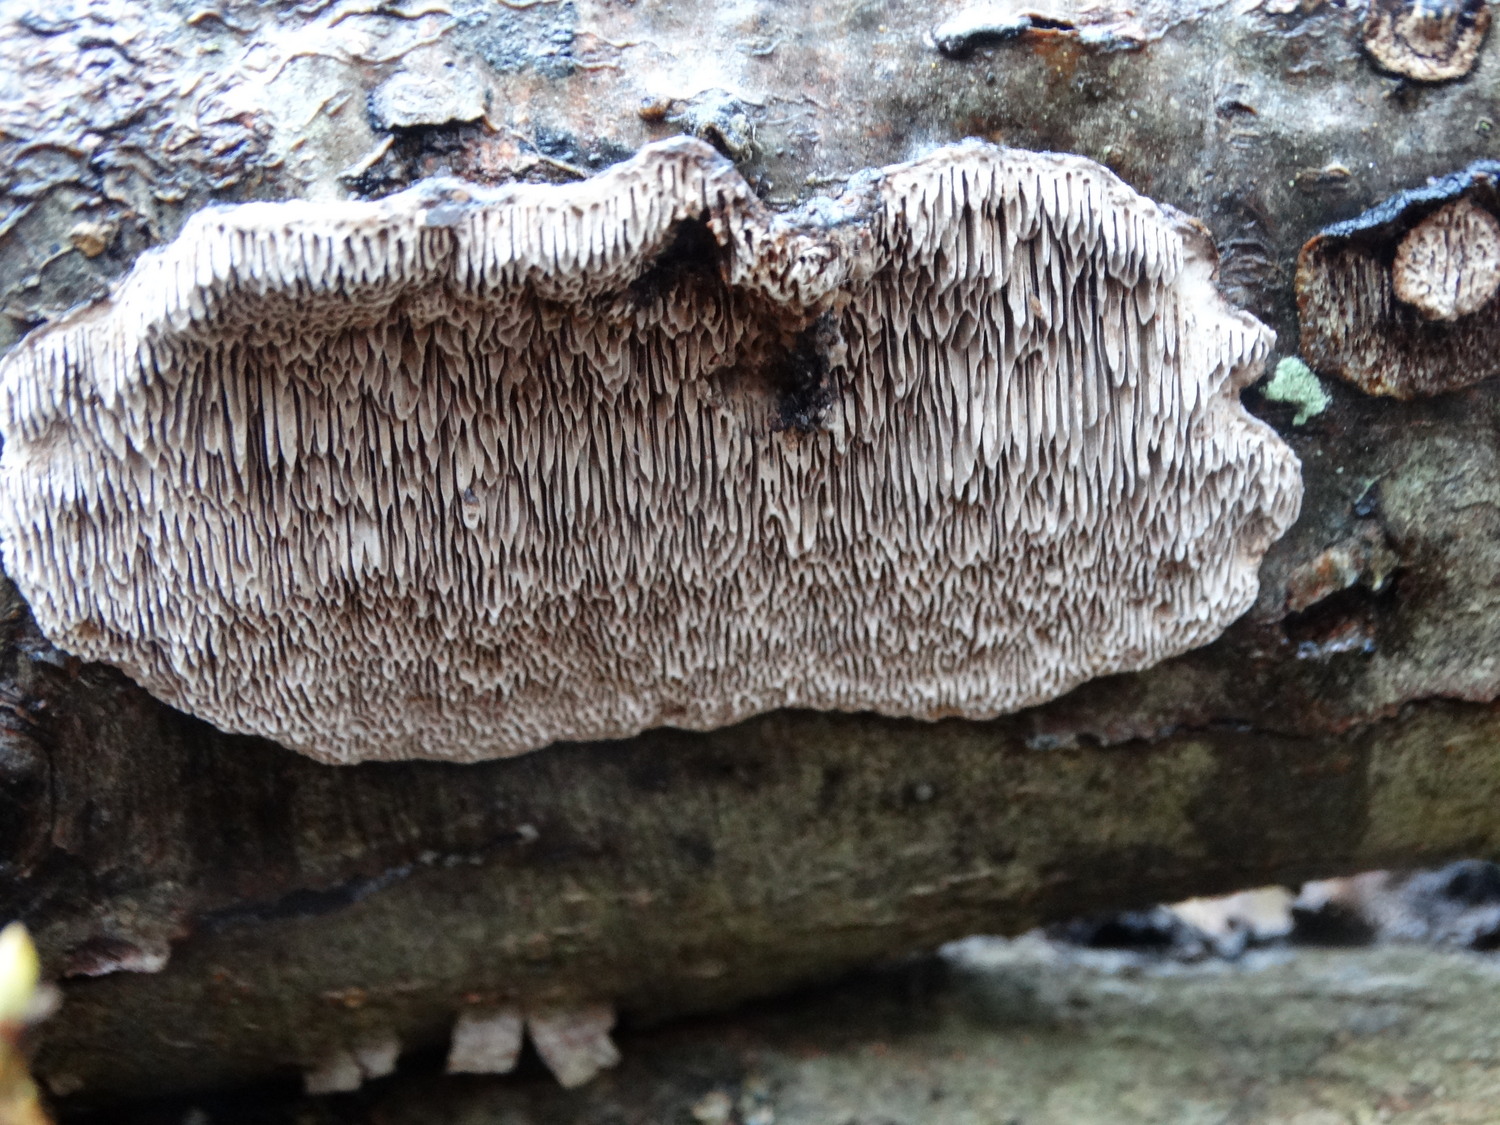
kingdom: Fungi
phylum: Basidiomycota
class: Agaricomycetes
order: Polyporales
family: Polyporaceae
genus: Podofomes
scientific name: Podofomes mollis
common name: blød begporesvamp
